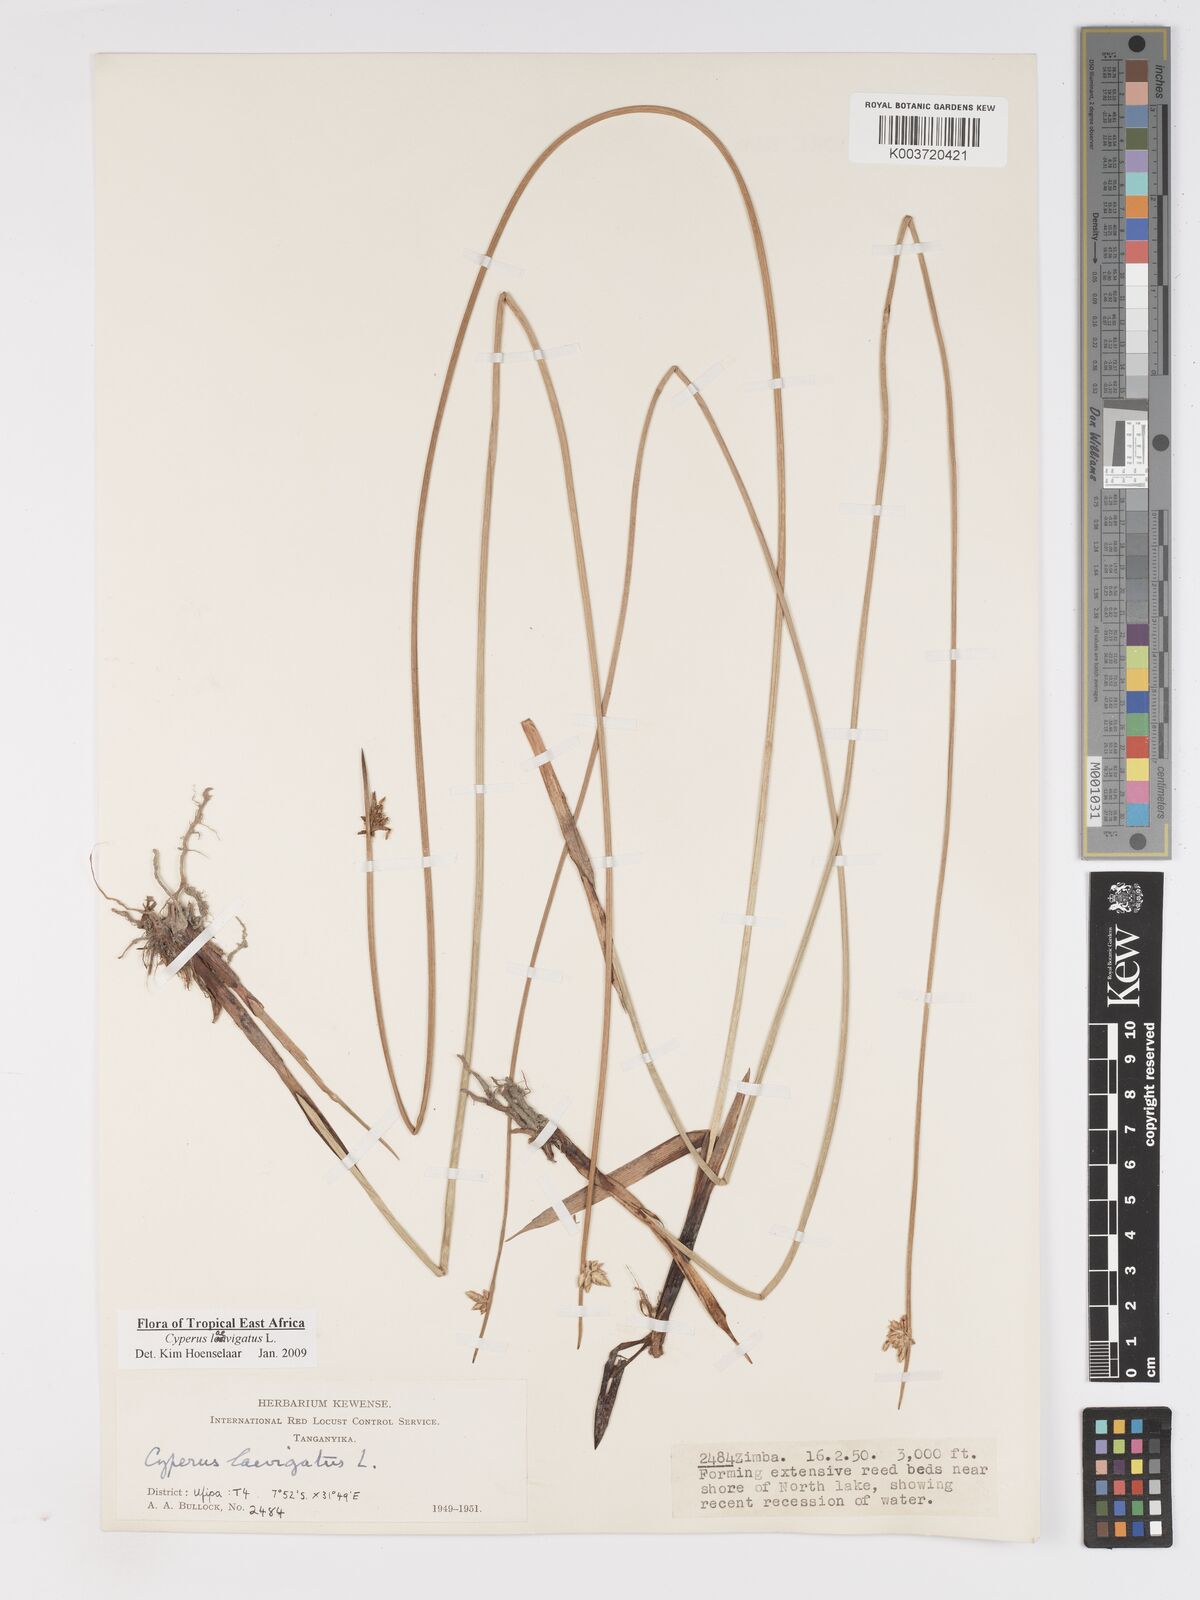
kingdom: Plantae
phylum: Tracheophyta
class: Liliopsida
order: Poales
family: Cyperaceae
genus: Cyperus
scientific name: Cyperus laevigatus
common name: Smooth flat sedge
